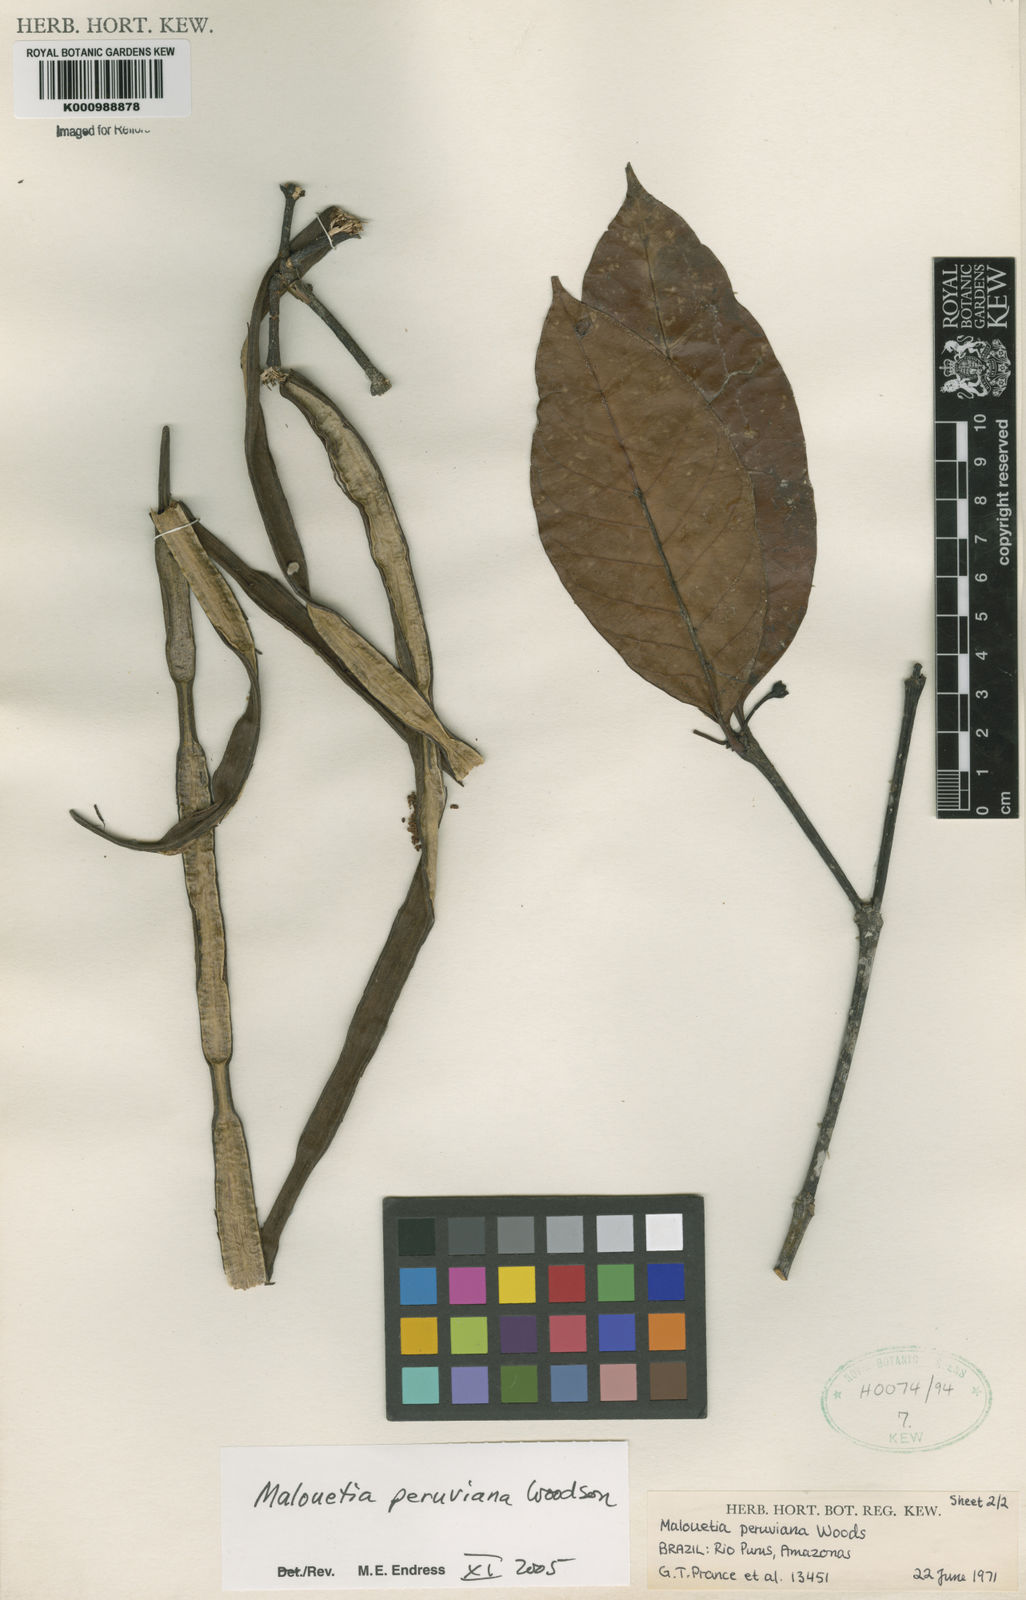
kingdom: Plantae
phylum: Tracheophyta
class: Magnoliopsida
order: Gentianales
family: Apocynaceae
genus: Malouetia
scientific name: Malouetia tamaquarina
